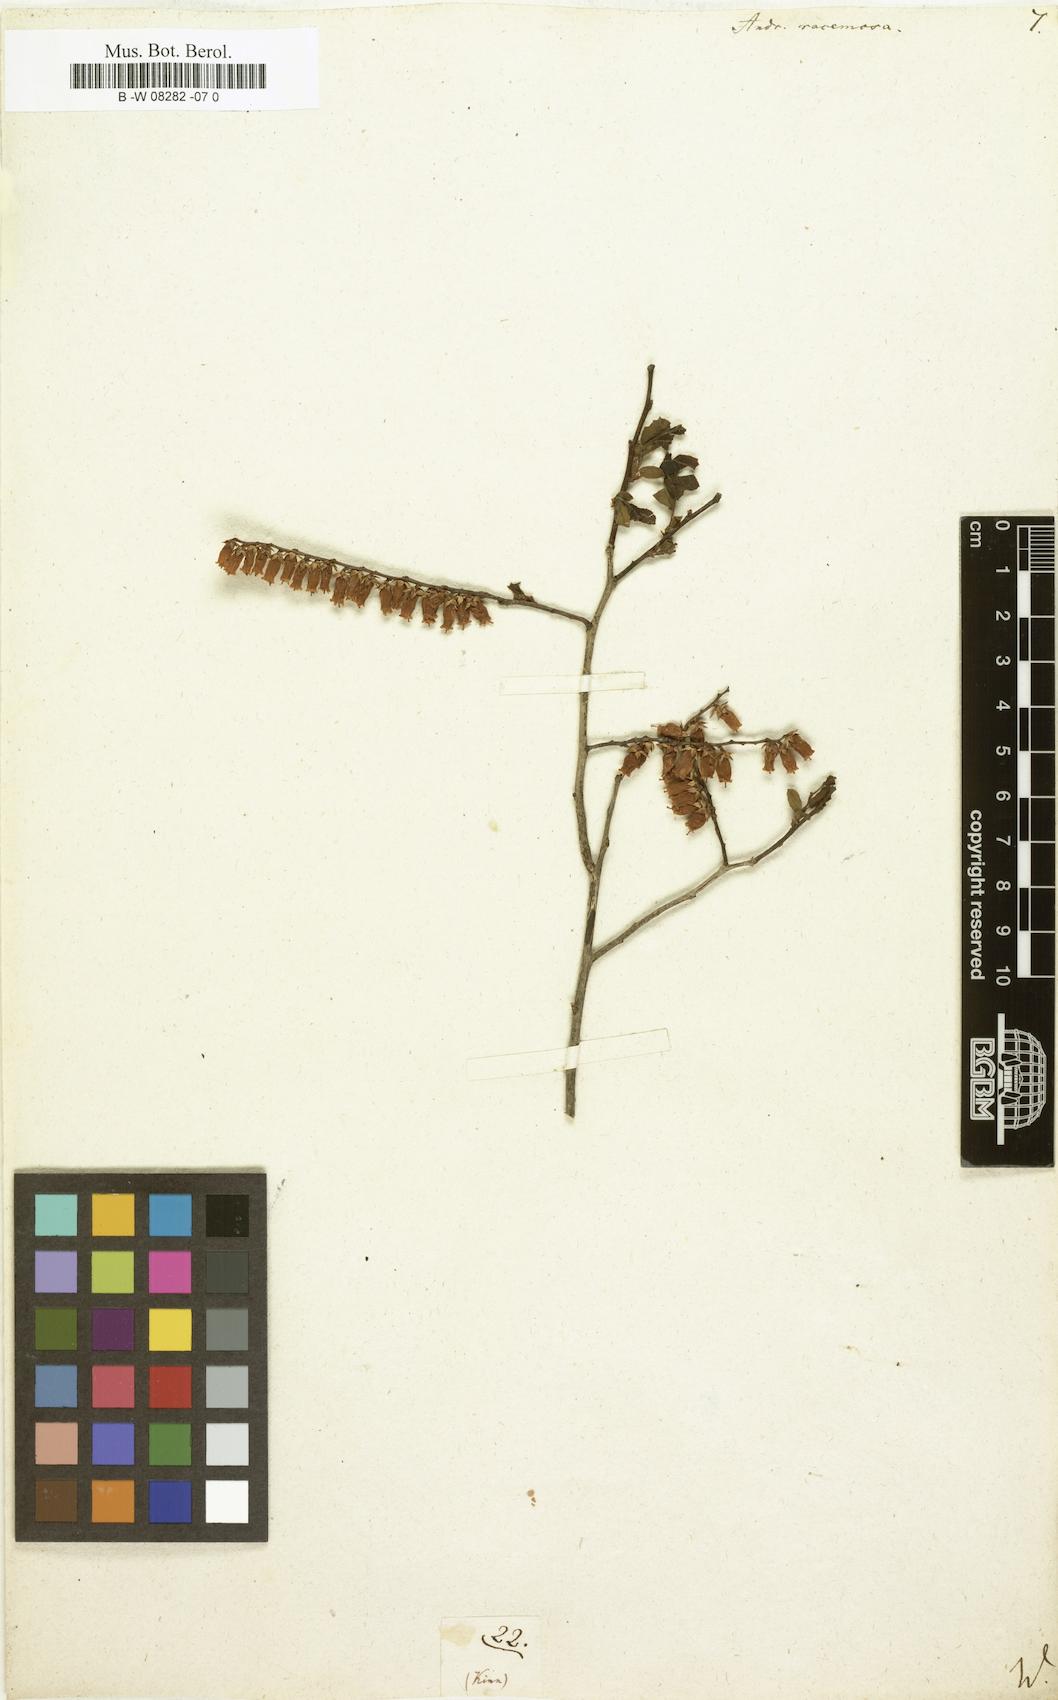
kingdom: Plantae
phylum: Tracheophyta
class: Magnoliopsida
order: Ericales
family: Ericaceae
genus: Eubotrys
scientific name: Eubotrys racemosa
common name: Fetterbush
